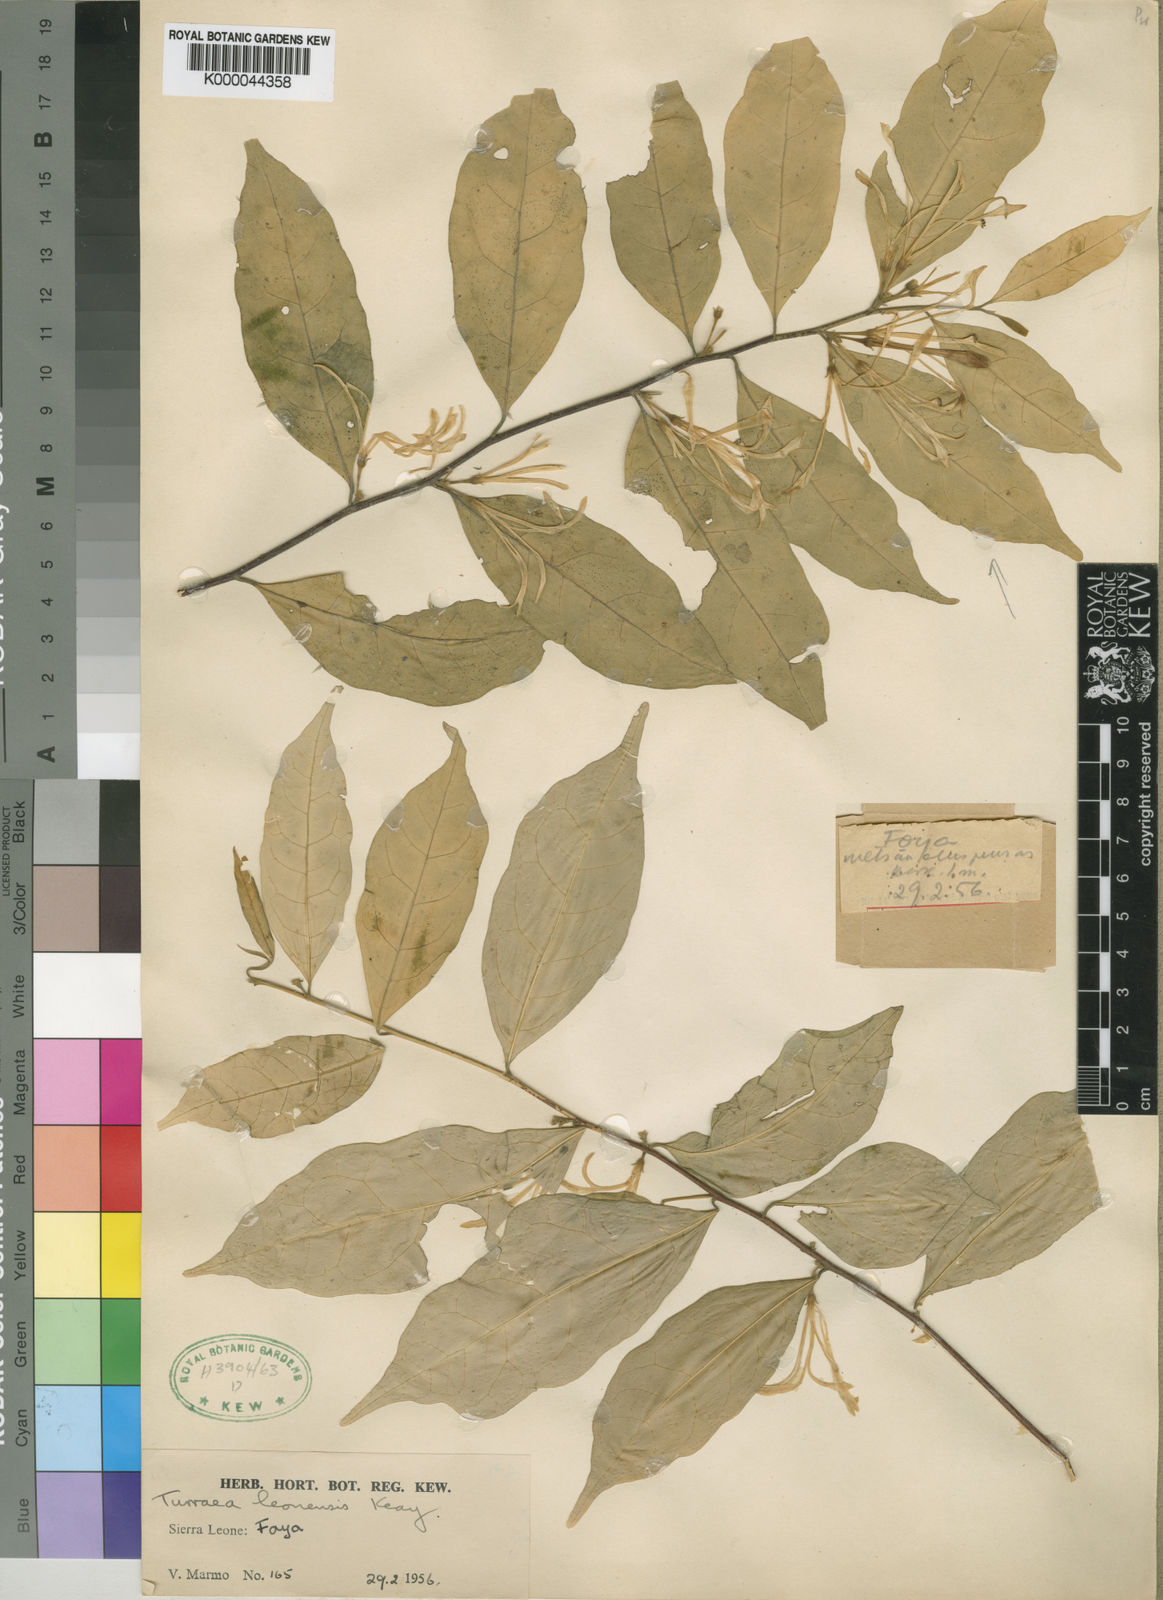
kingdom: Plantae
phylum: Tracheophyta
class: Magnoliopsida
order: Sapindales
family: Meliaceae
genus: Turraea
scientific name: Turraea leonensis
